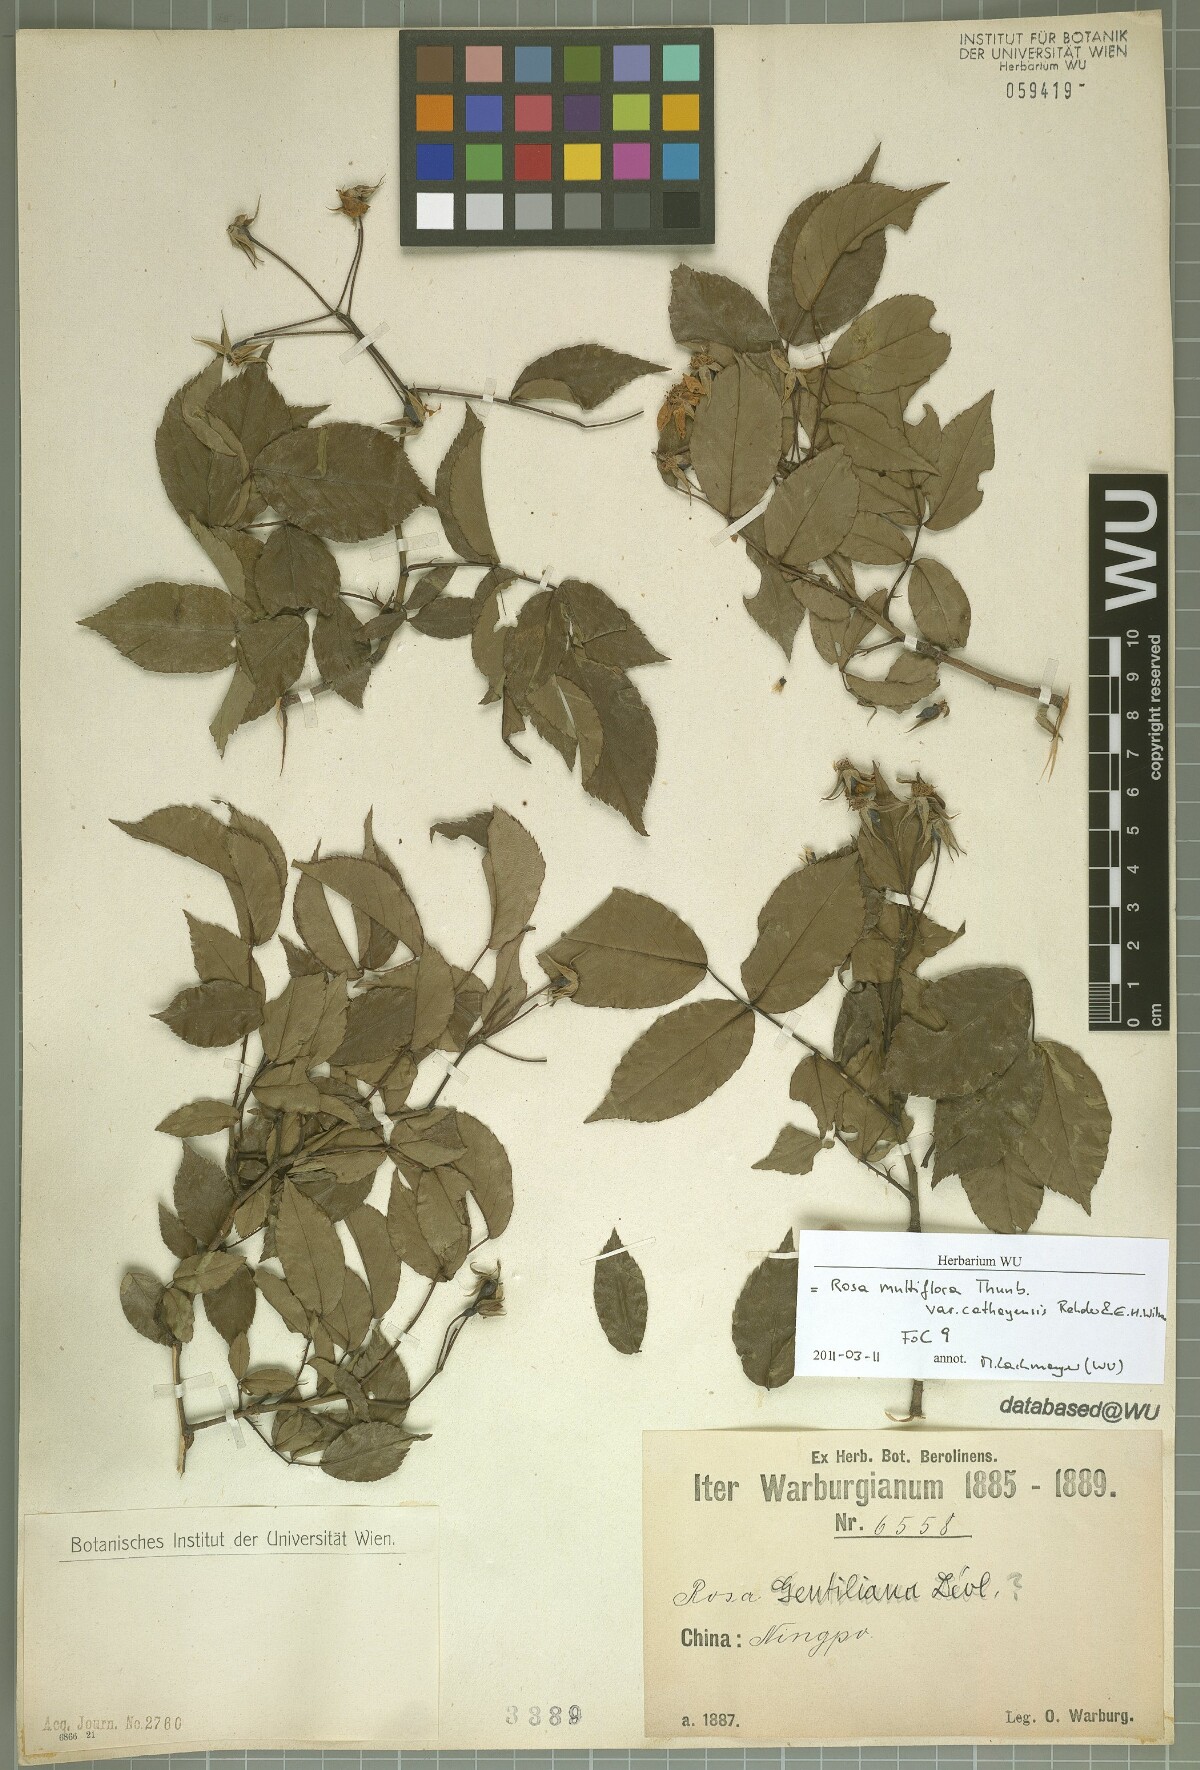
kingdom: Plantae
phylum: Tracheophyta
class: Magnoliopsida
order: Rosales
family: Rosaceae
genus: Rosa
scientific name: Rosa multiflora
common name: Multiflora rose
